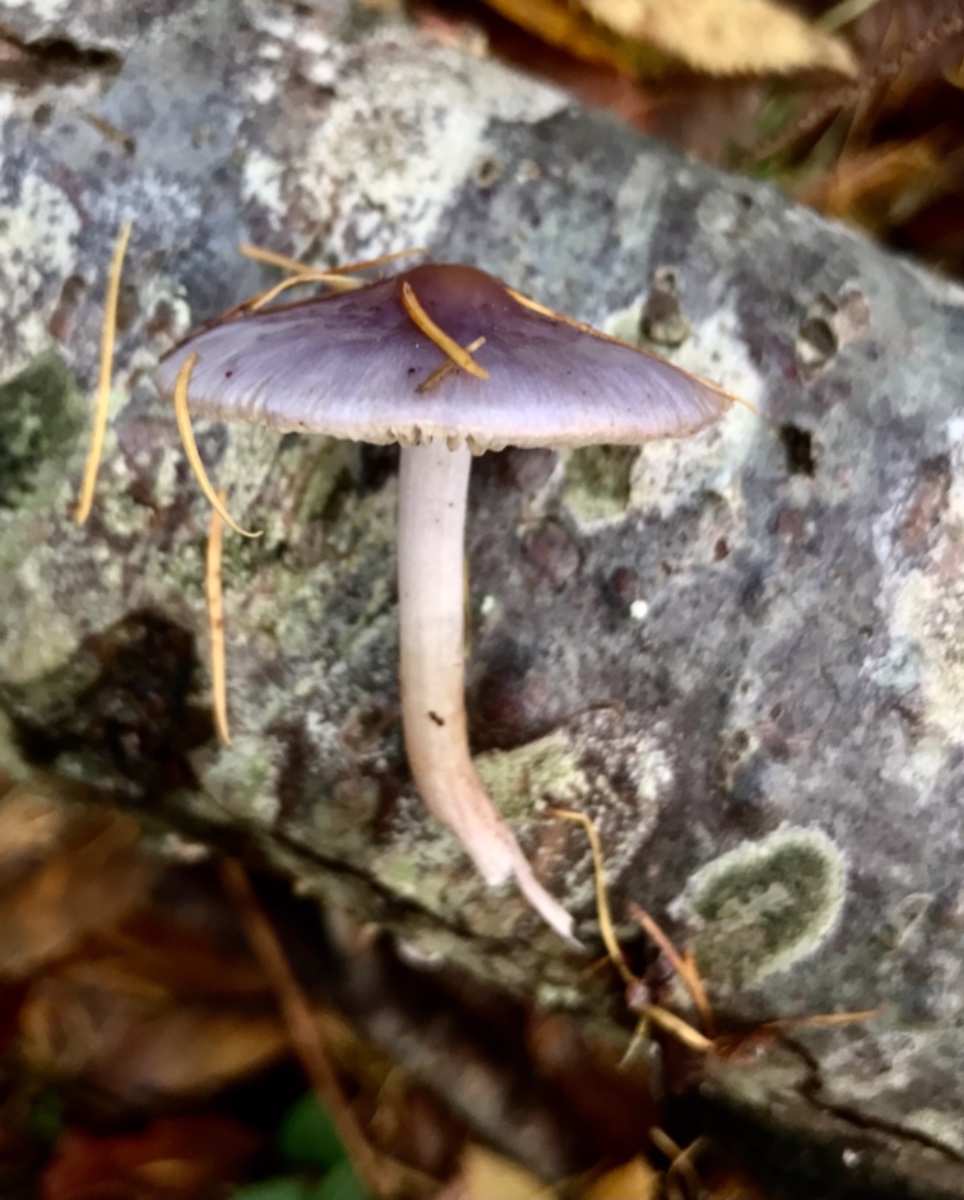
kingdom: Fungi
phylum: Basidiomycota
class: Agaricomycetes
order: Agaricales
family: Inocybaceae
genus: Inocybe
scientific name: Inocybe geophylla
